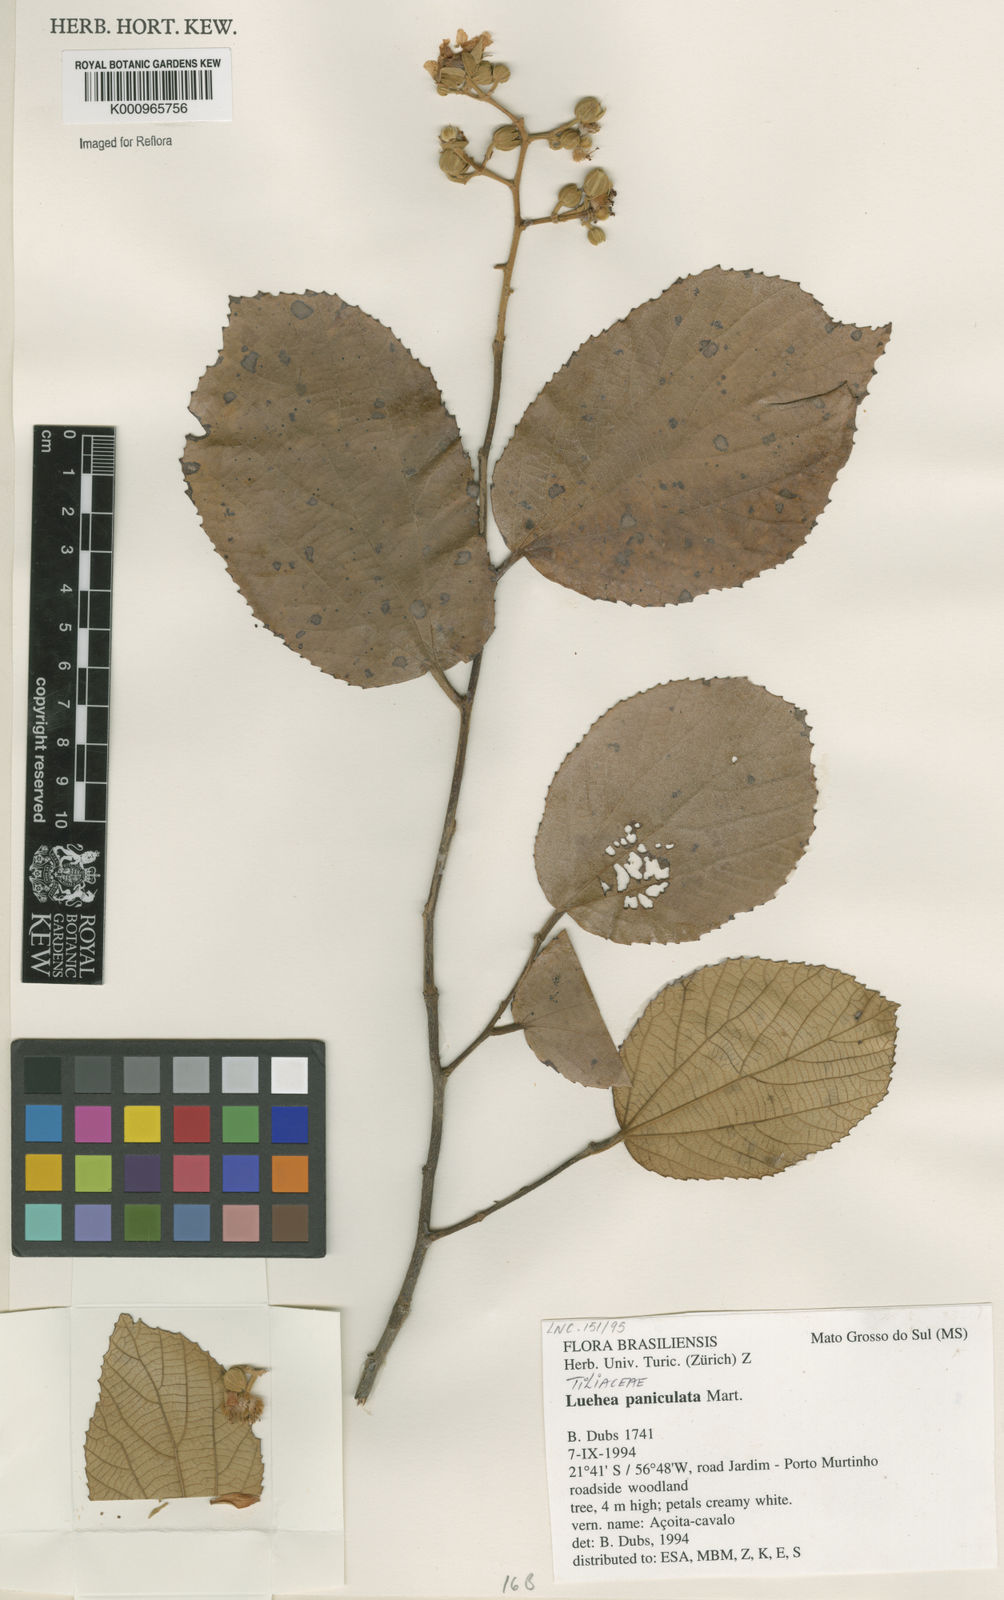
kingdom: Plantae
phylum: Tracheophyta
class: Magnoliopsida
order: Malvales
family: Malvaceae
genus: Luehea
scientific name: Luehea paniculata
